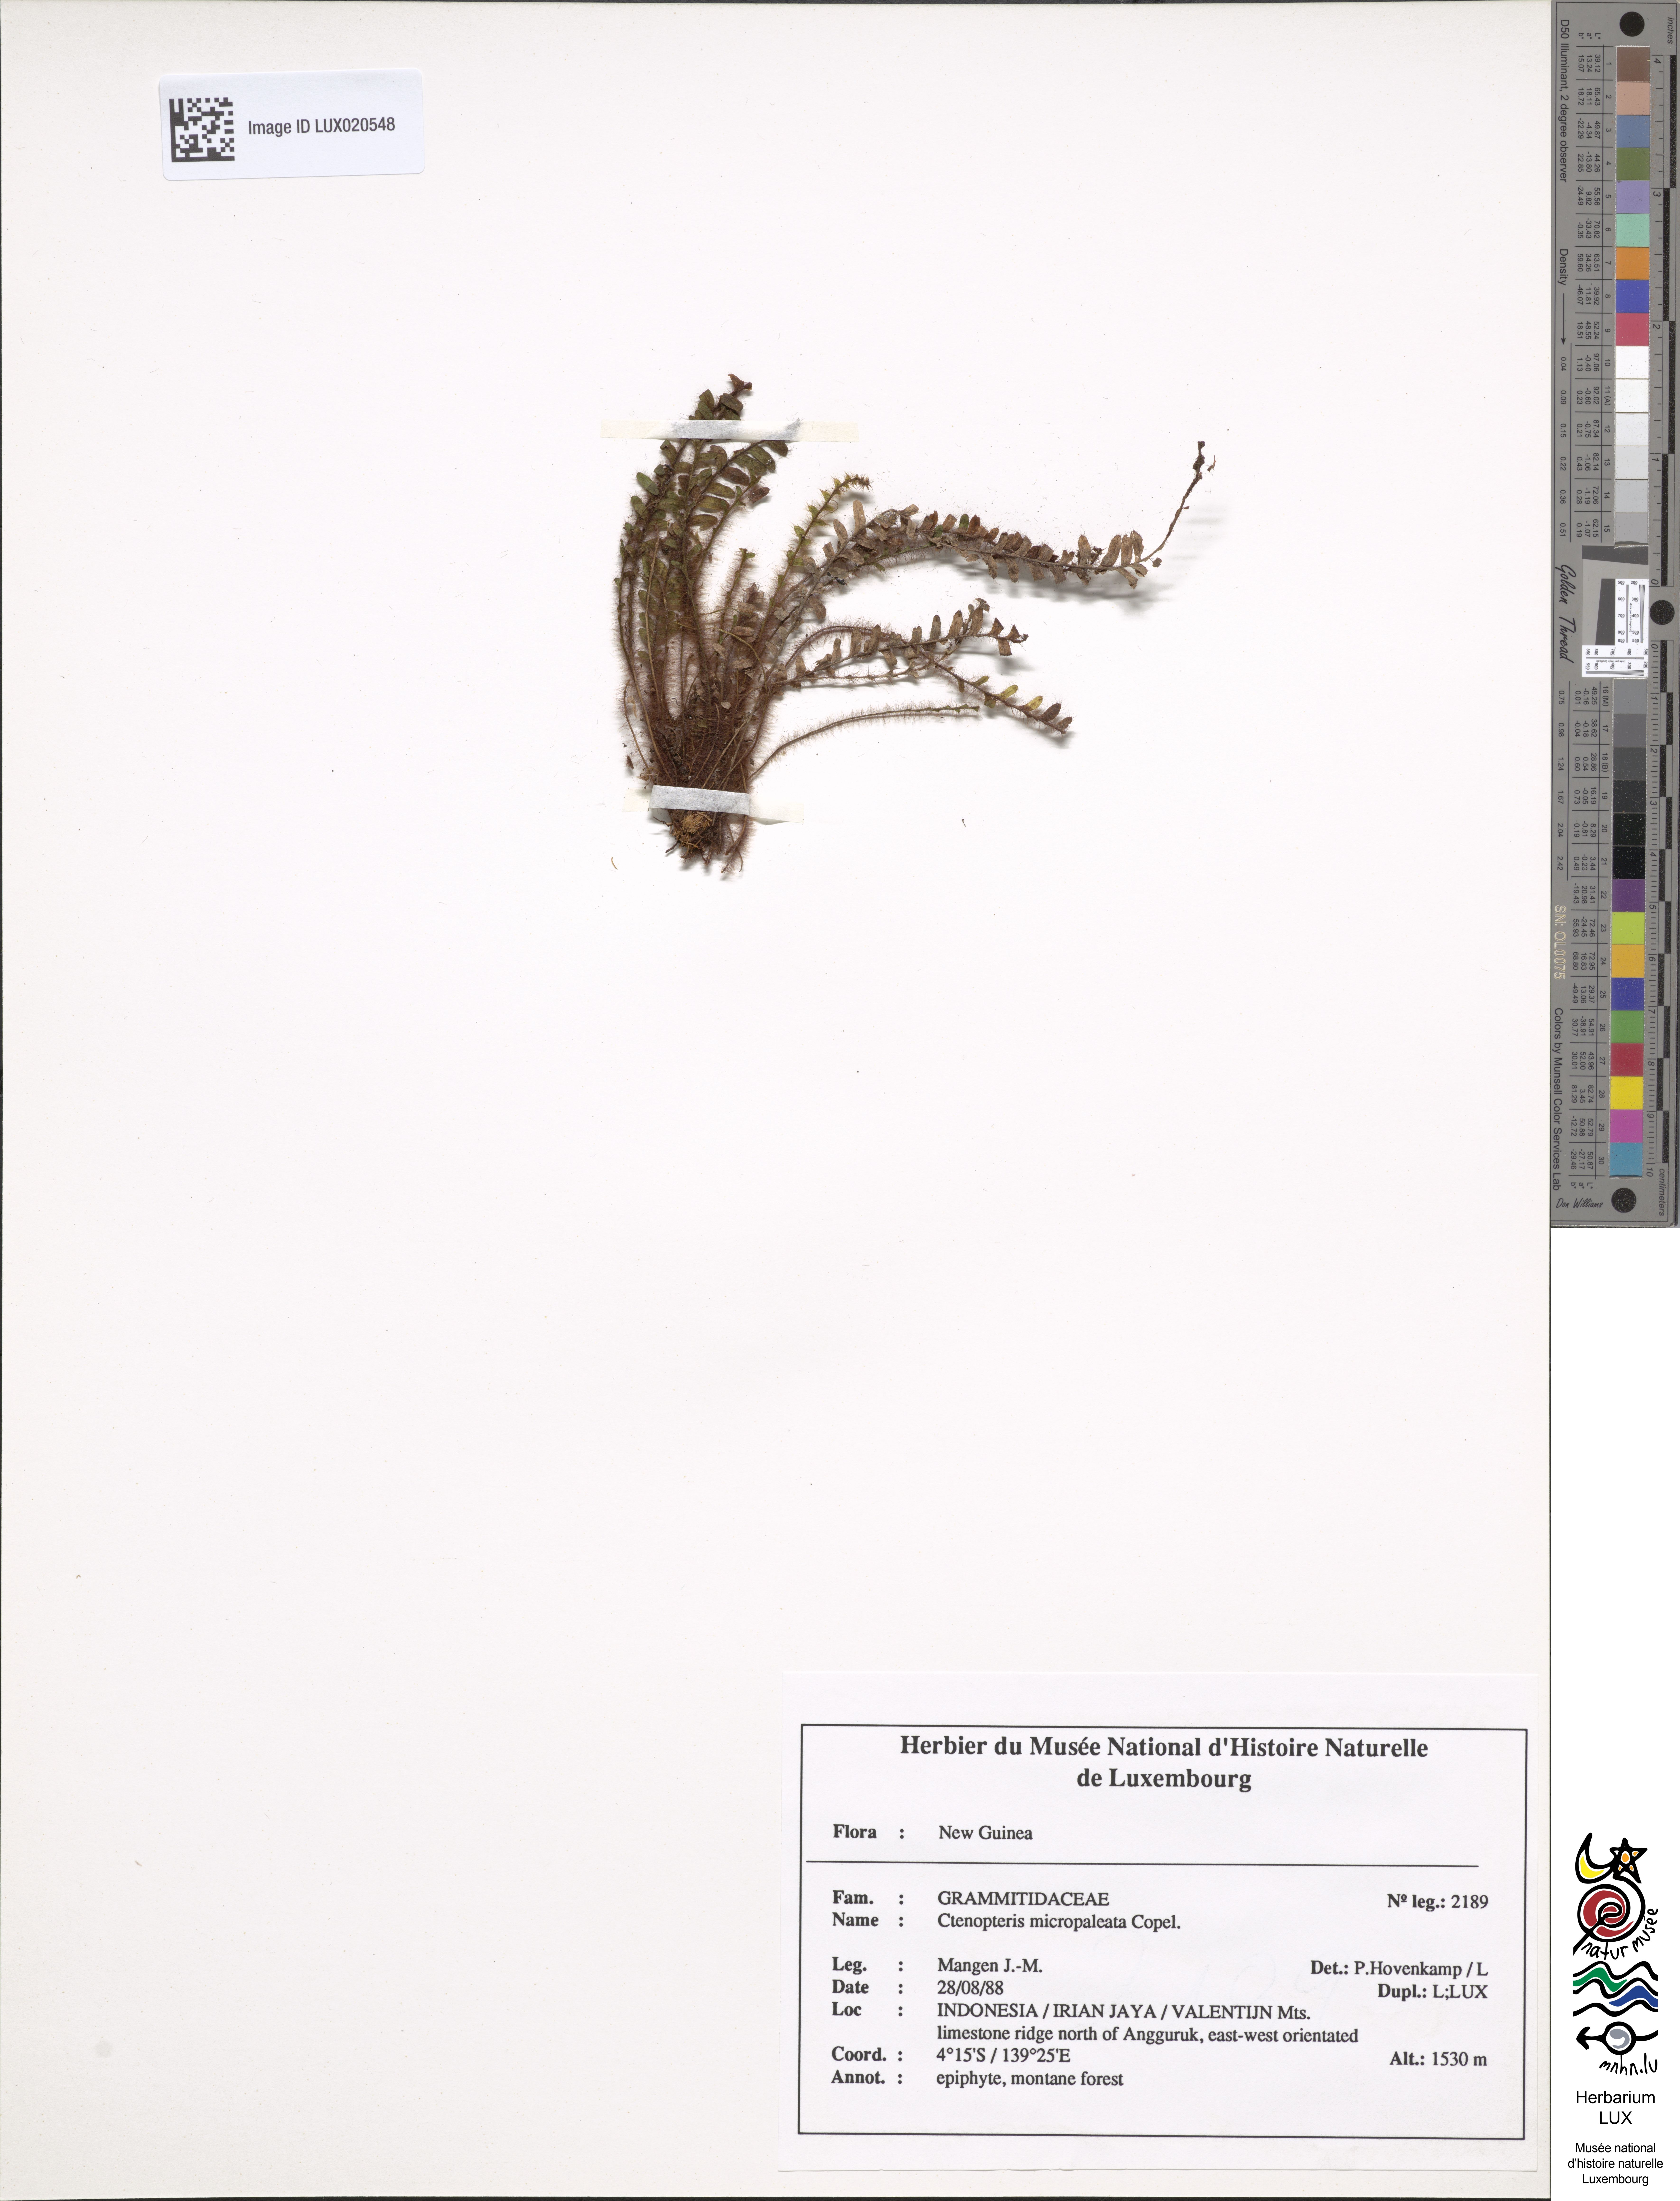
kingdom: Plantae
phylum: Tracheophyta
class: Polypodiopsida
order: Polypodiales
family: Polypodiaceae
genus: Dasygrammitis
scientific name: Dasygrammitis mollicoma
